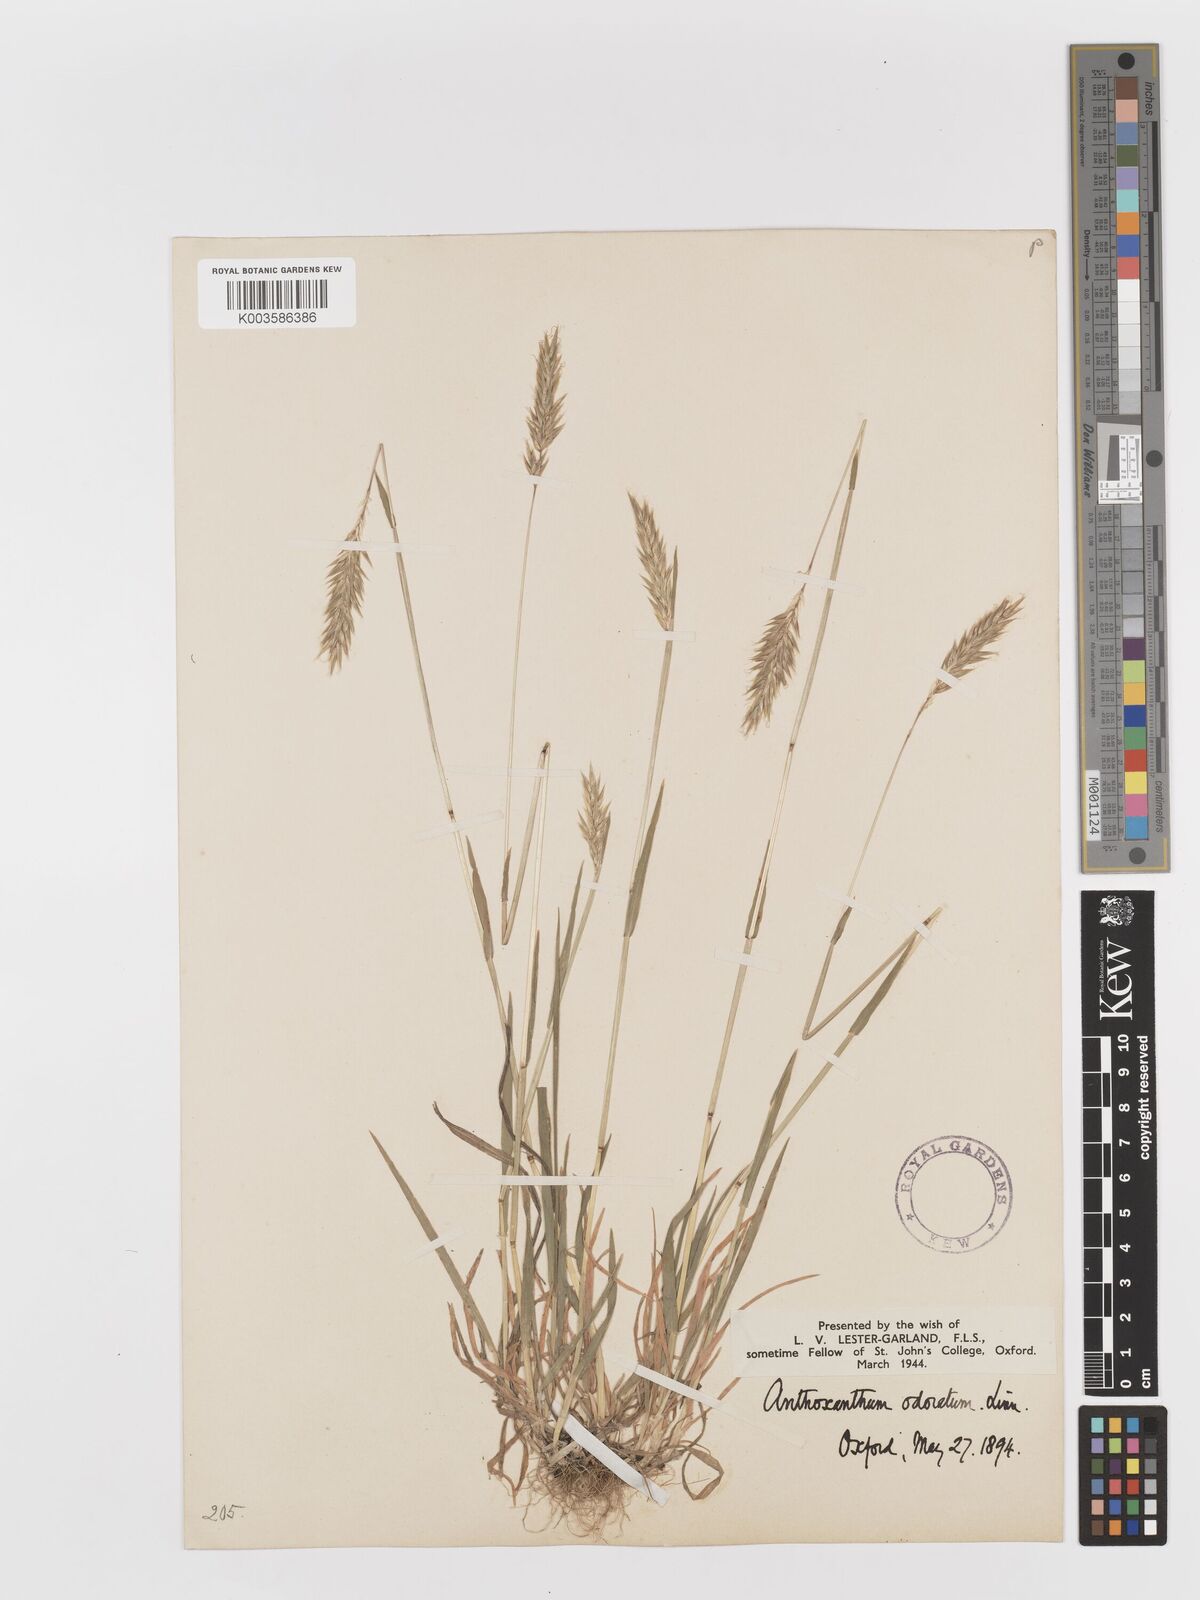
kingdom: Plantae
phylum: Tracheophyta
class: Liliopsida
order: Poales
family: Poaceae
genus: Anthoxanthum
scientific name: Anthoxanthum odoratum
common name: Sweet vernalgrass
